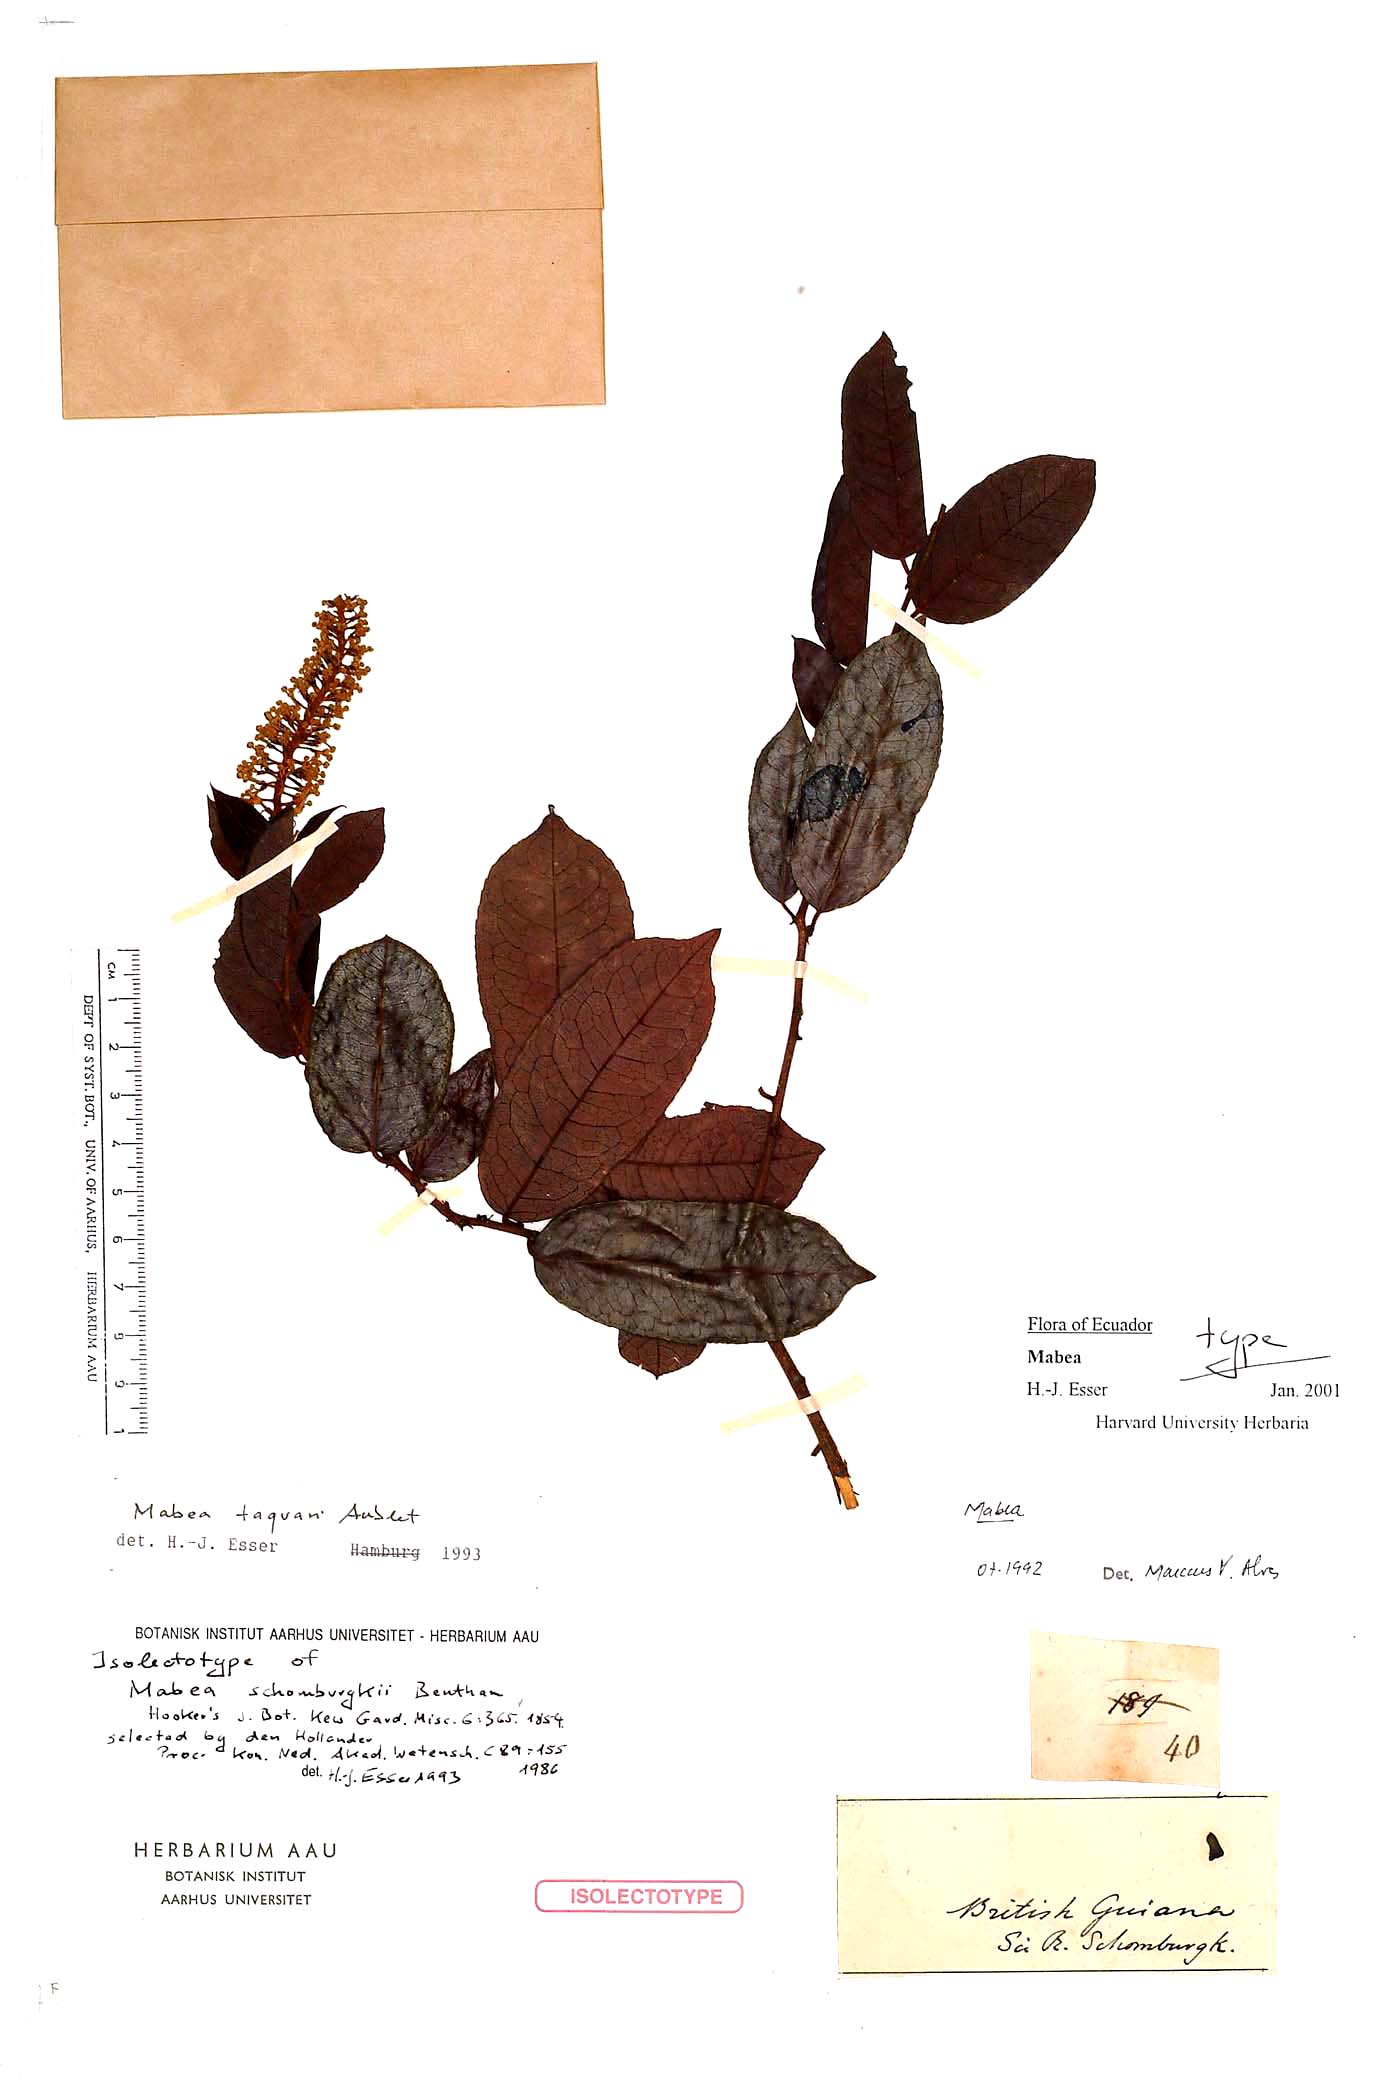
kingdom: Plantae
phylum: Tracheophyta
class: Magnoliopsida
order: Malpighiales
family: Euphorbiaceae
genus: Mabea
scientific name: Mabea taquari
